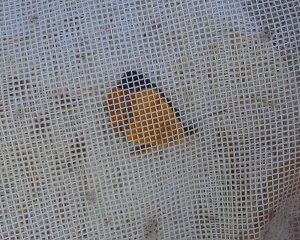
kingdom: Animalia
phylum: Arthropoda
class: Insecta
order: Lepidoptera
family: Nymphalidae
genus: Phyciodes
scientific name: Phyciodes tharos
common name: Northern Crescent
